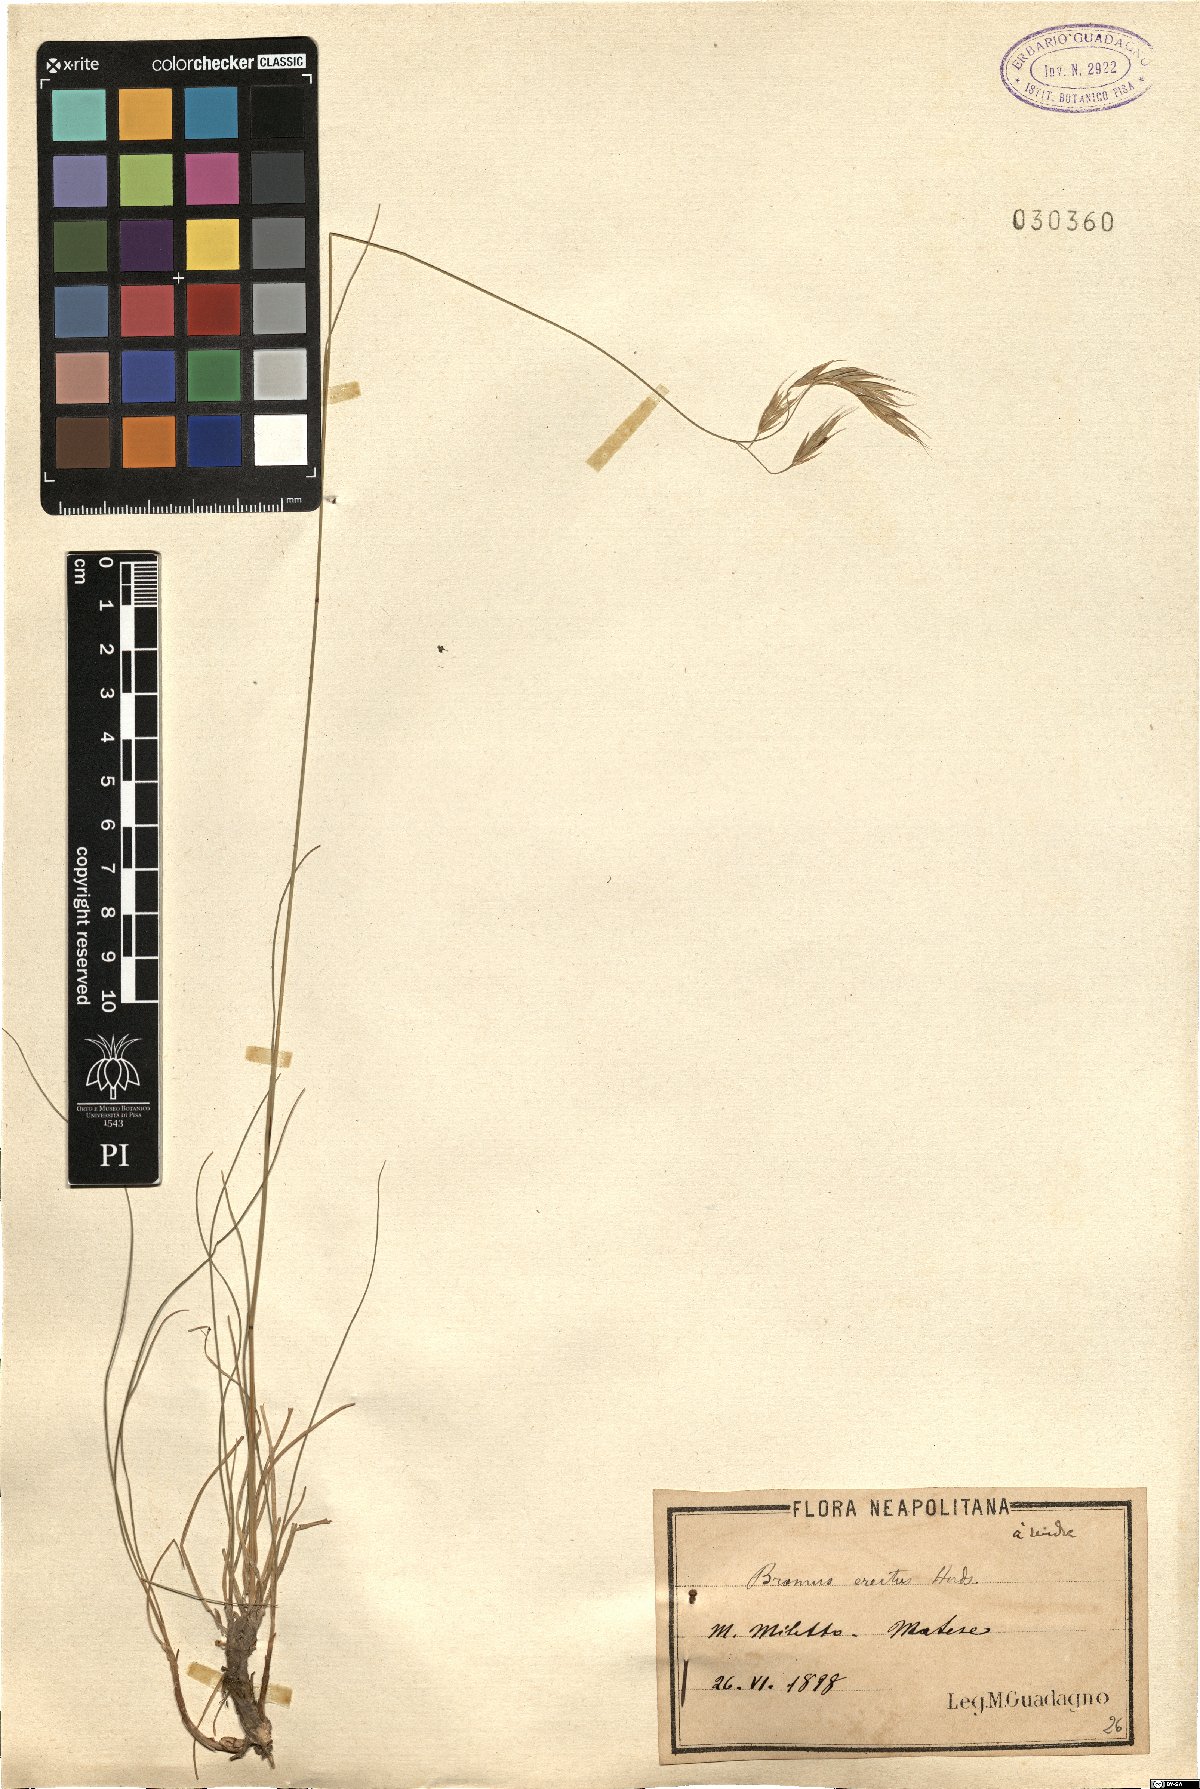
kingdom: Plantae
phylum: Tracheophyta
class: Liliopsida
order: Poales
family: Poaceae
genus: Bromus
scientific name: Bromus erectus
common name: Erect brome
